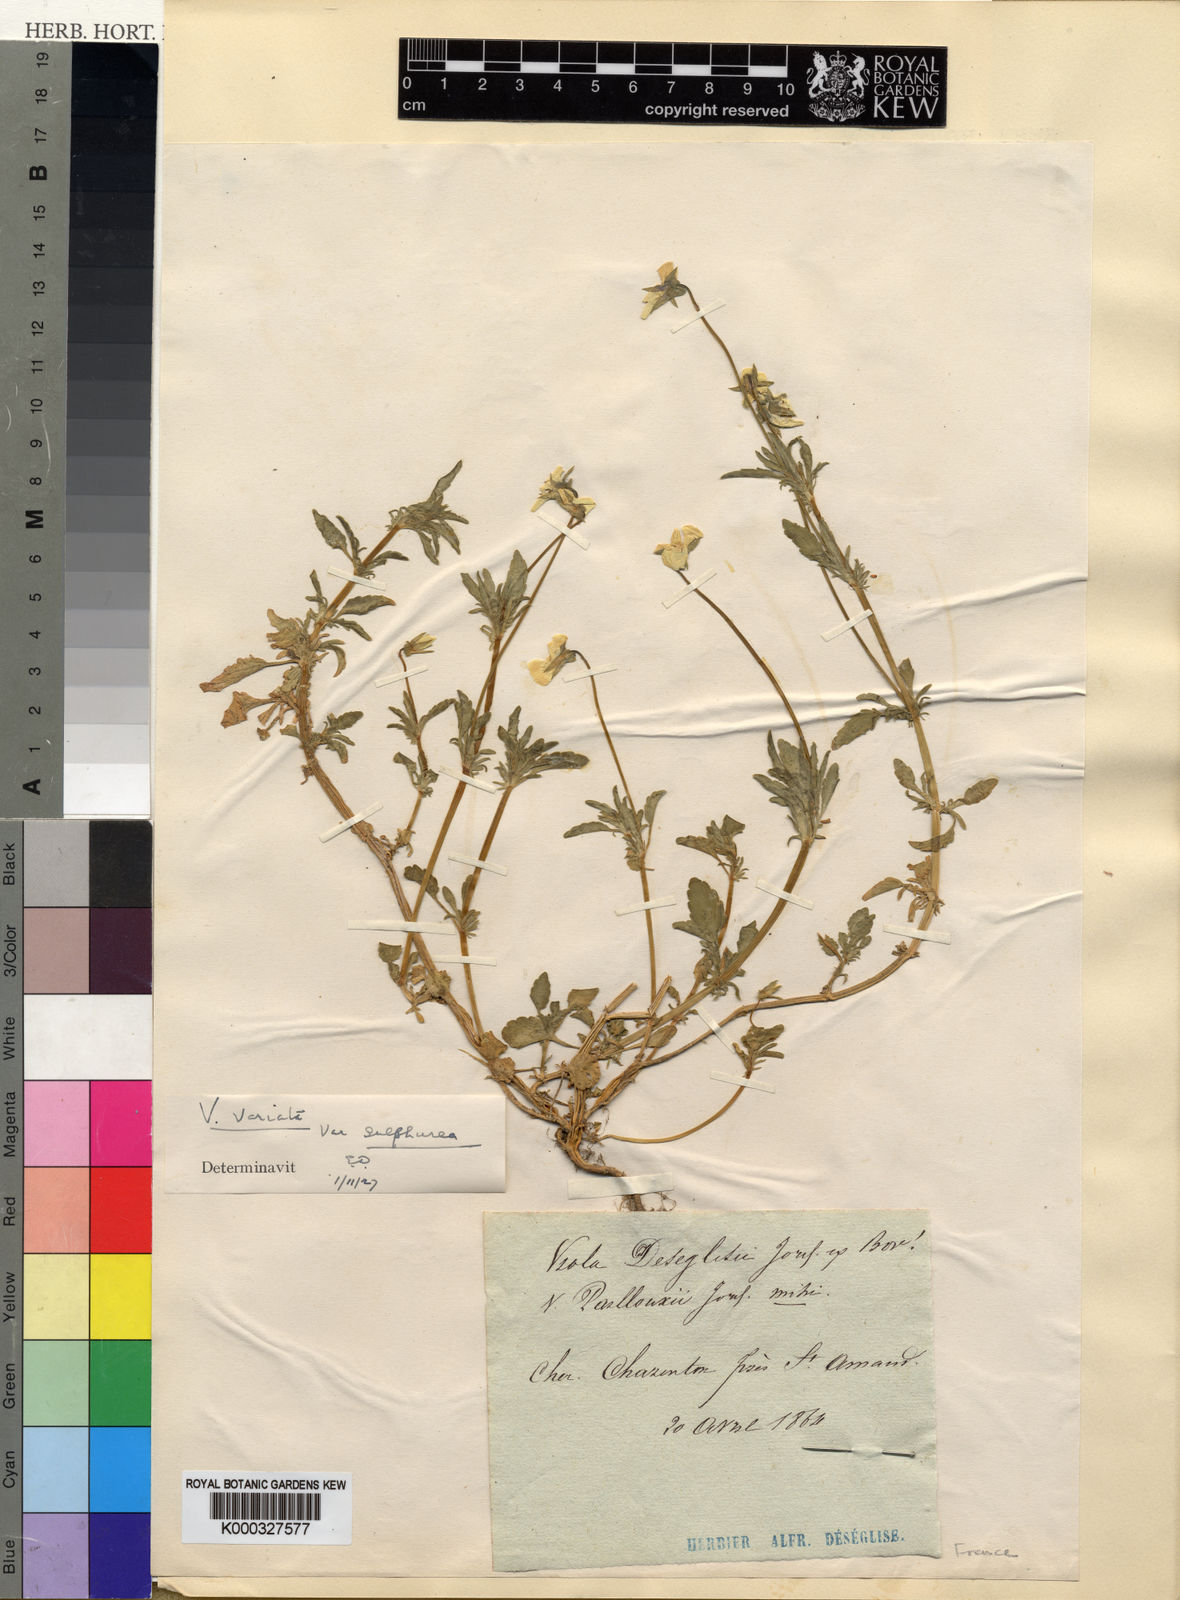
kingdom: Plantae
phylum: Tracheophyta
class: Magnoliopsida
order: Malpighiales
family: Violaceae
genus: Viola
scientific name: Viola arvensis
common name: Field pansy
